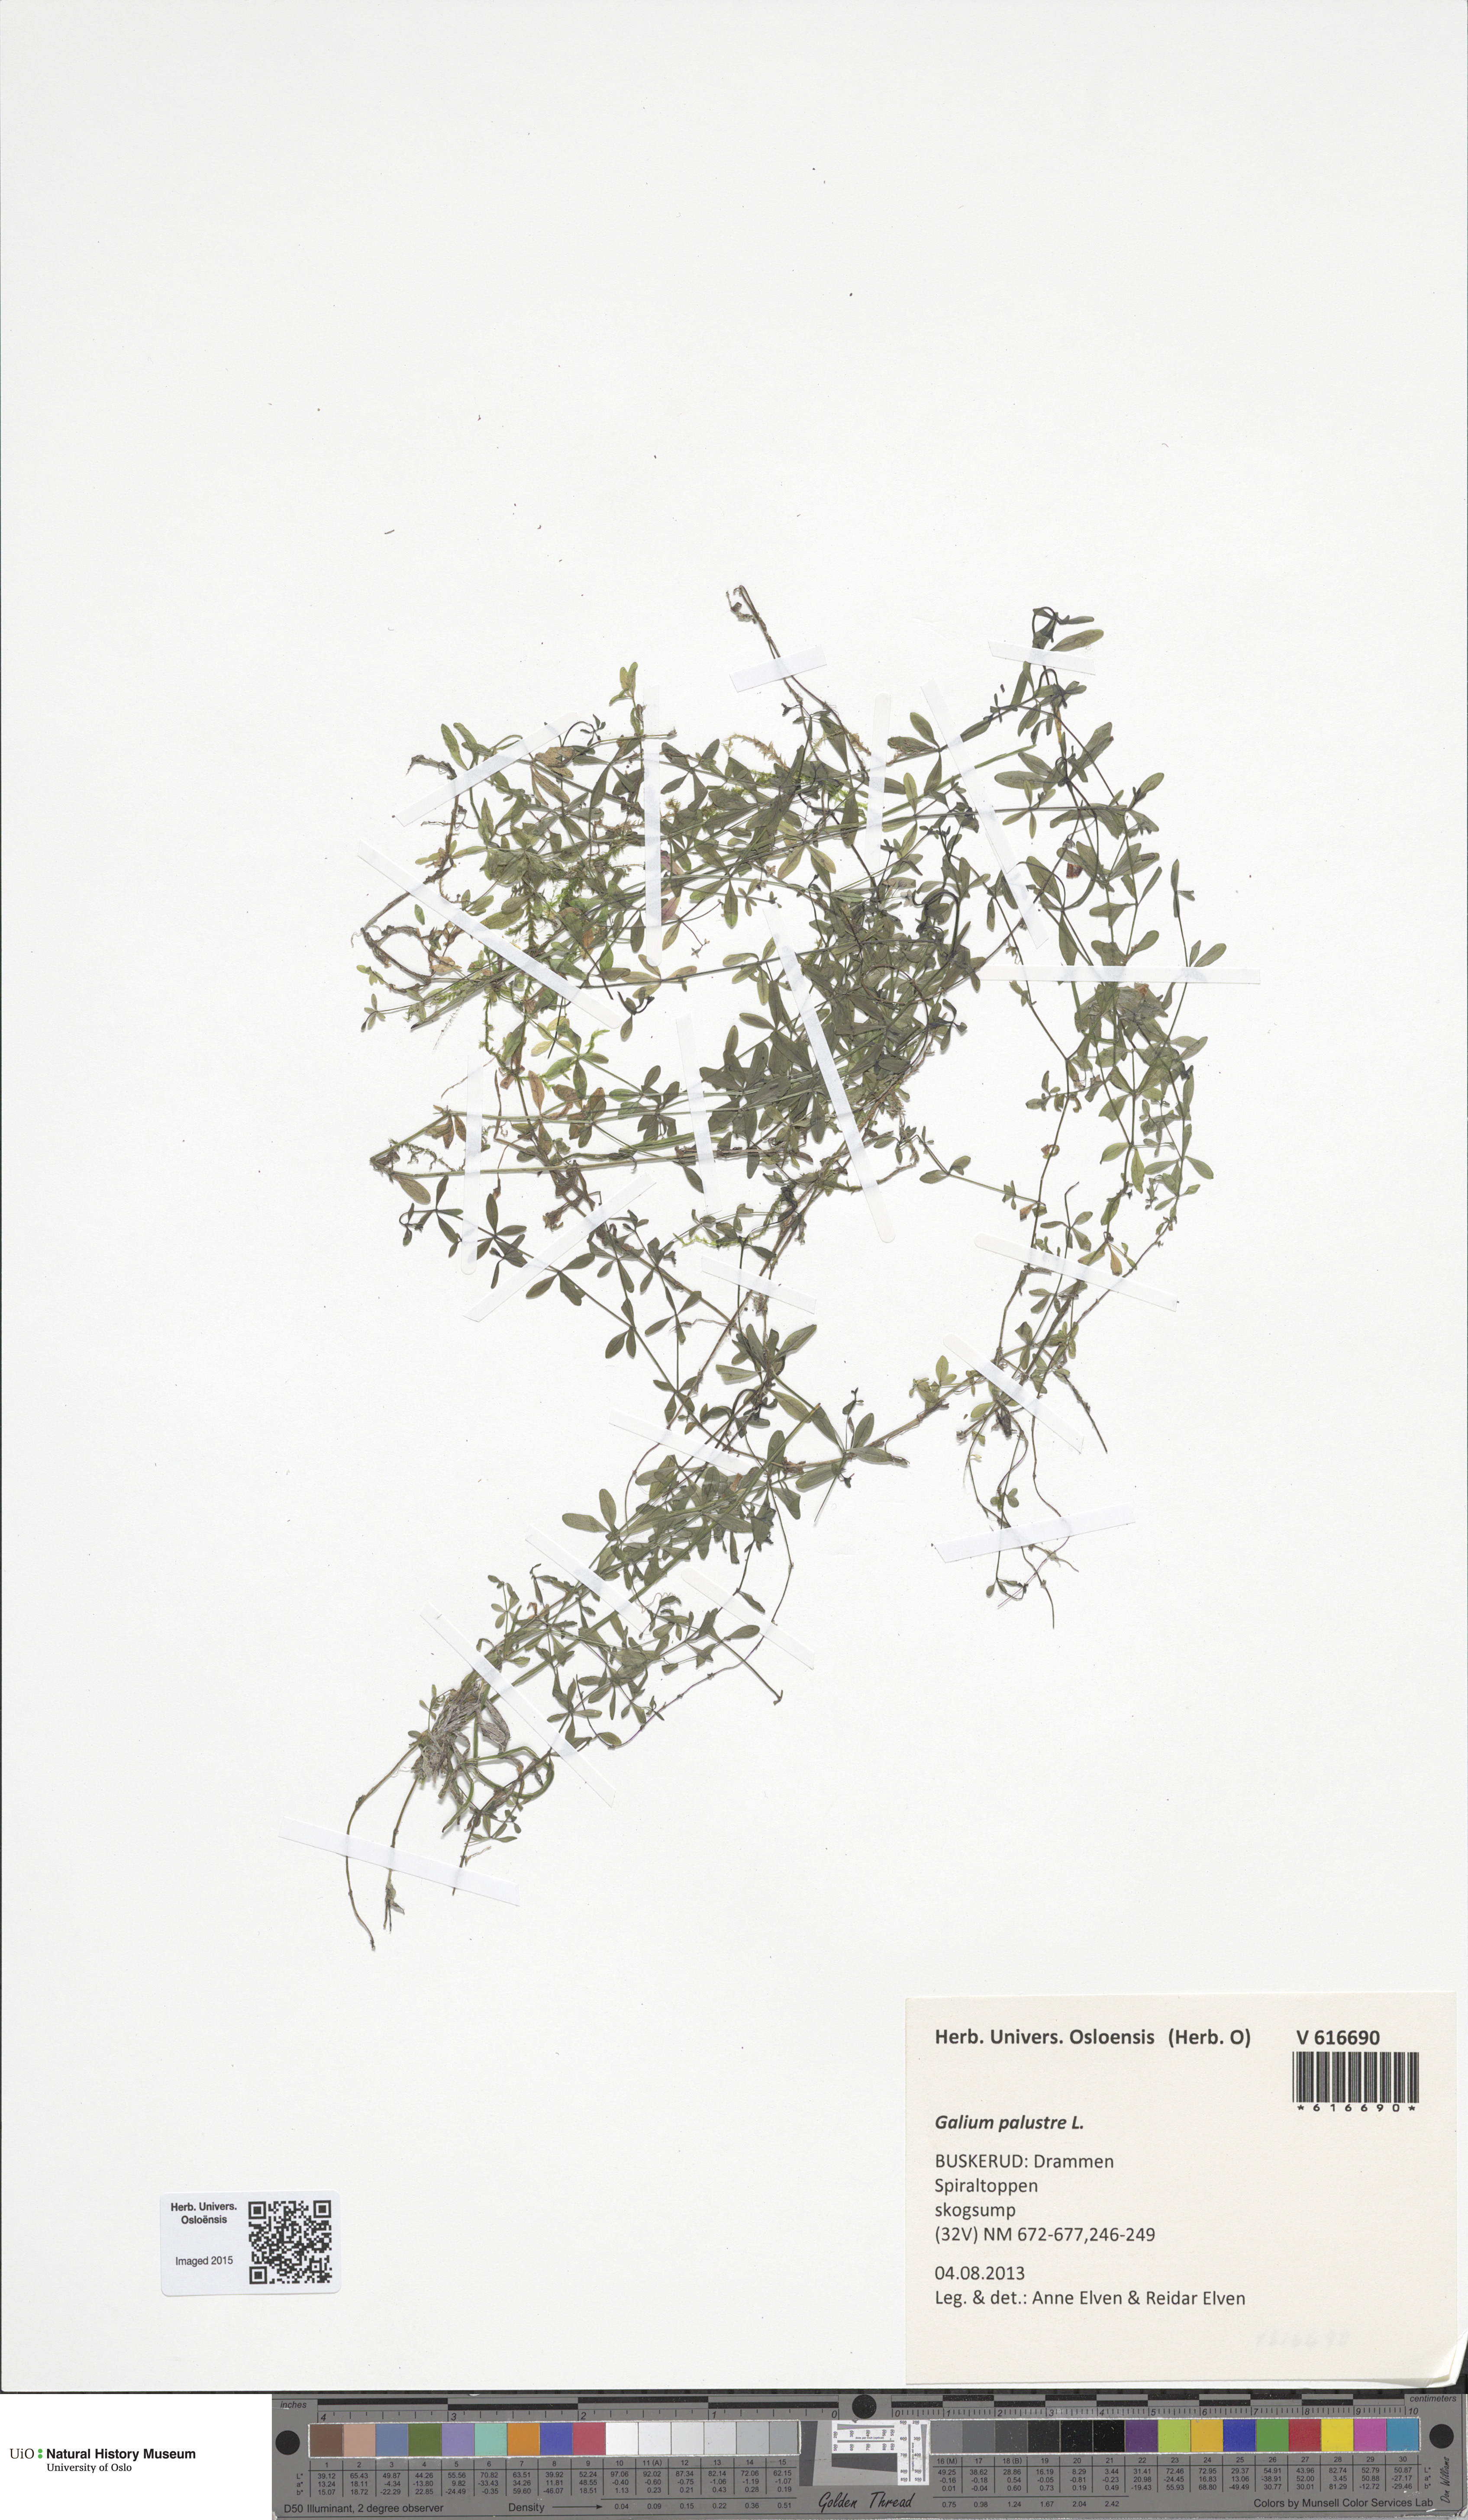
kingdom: Plantae
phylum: Tracheophyta
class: Magnoliopsida
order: Gentianales
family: Rubiaceae
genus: Galium
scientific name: Galium palustre
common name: Common marsh-bedstraw
